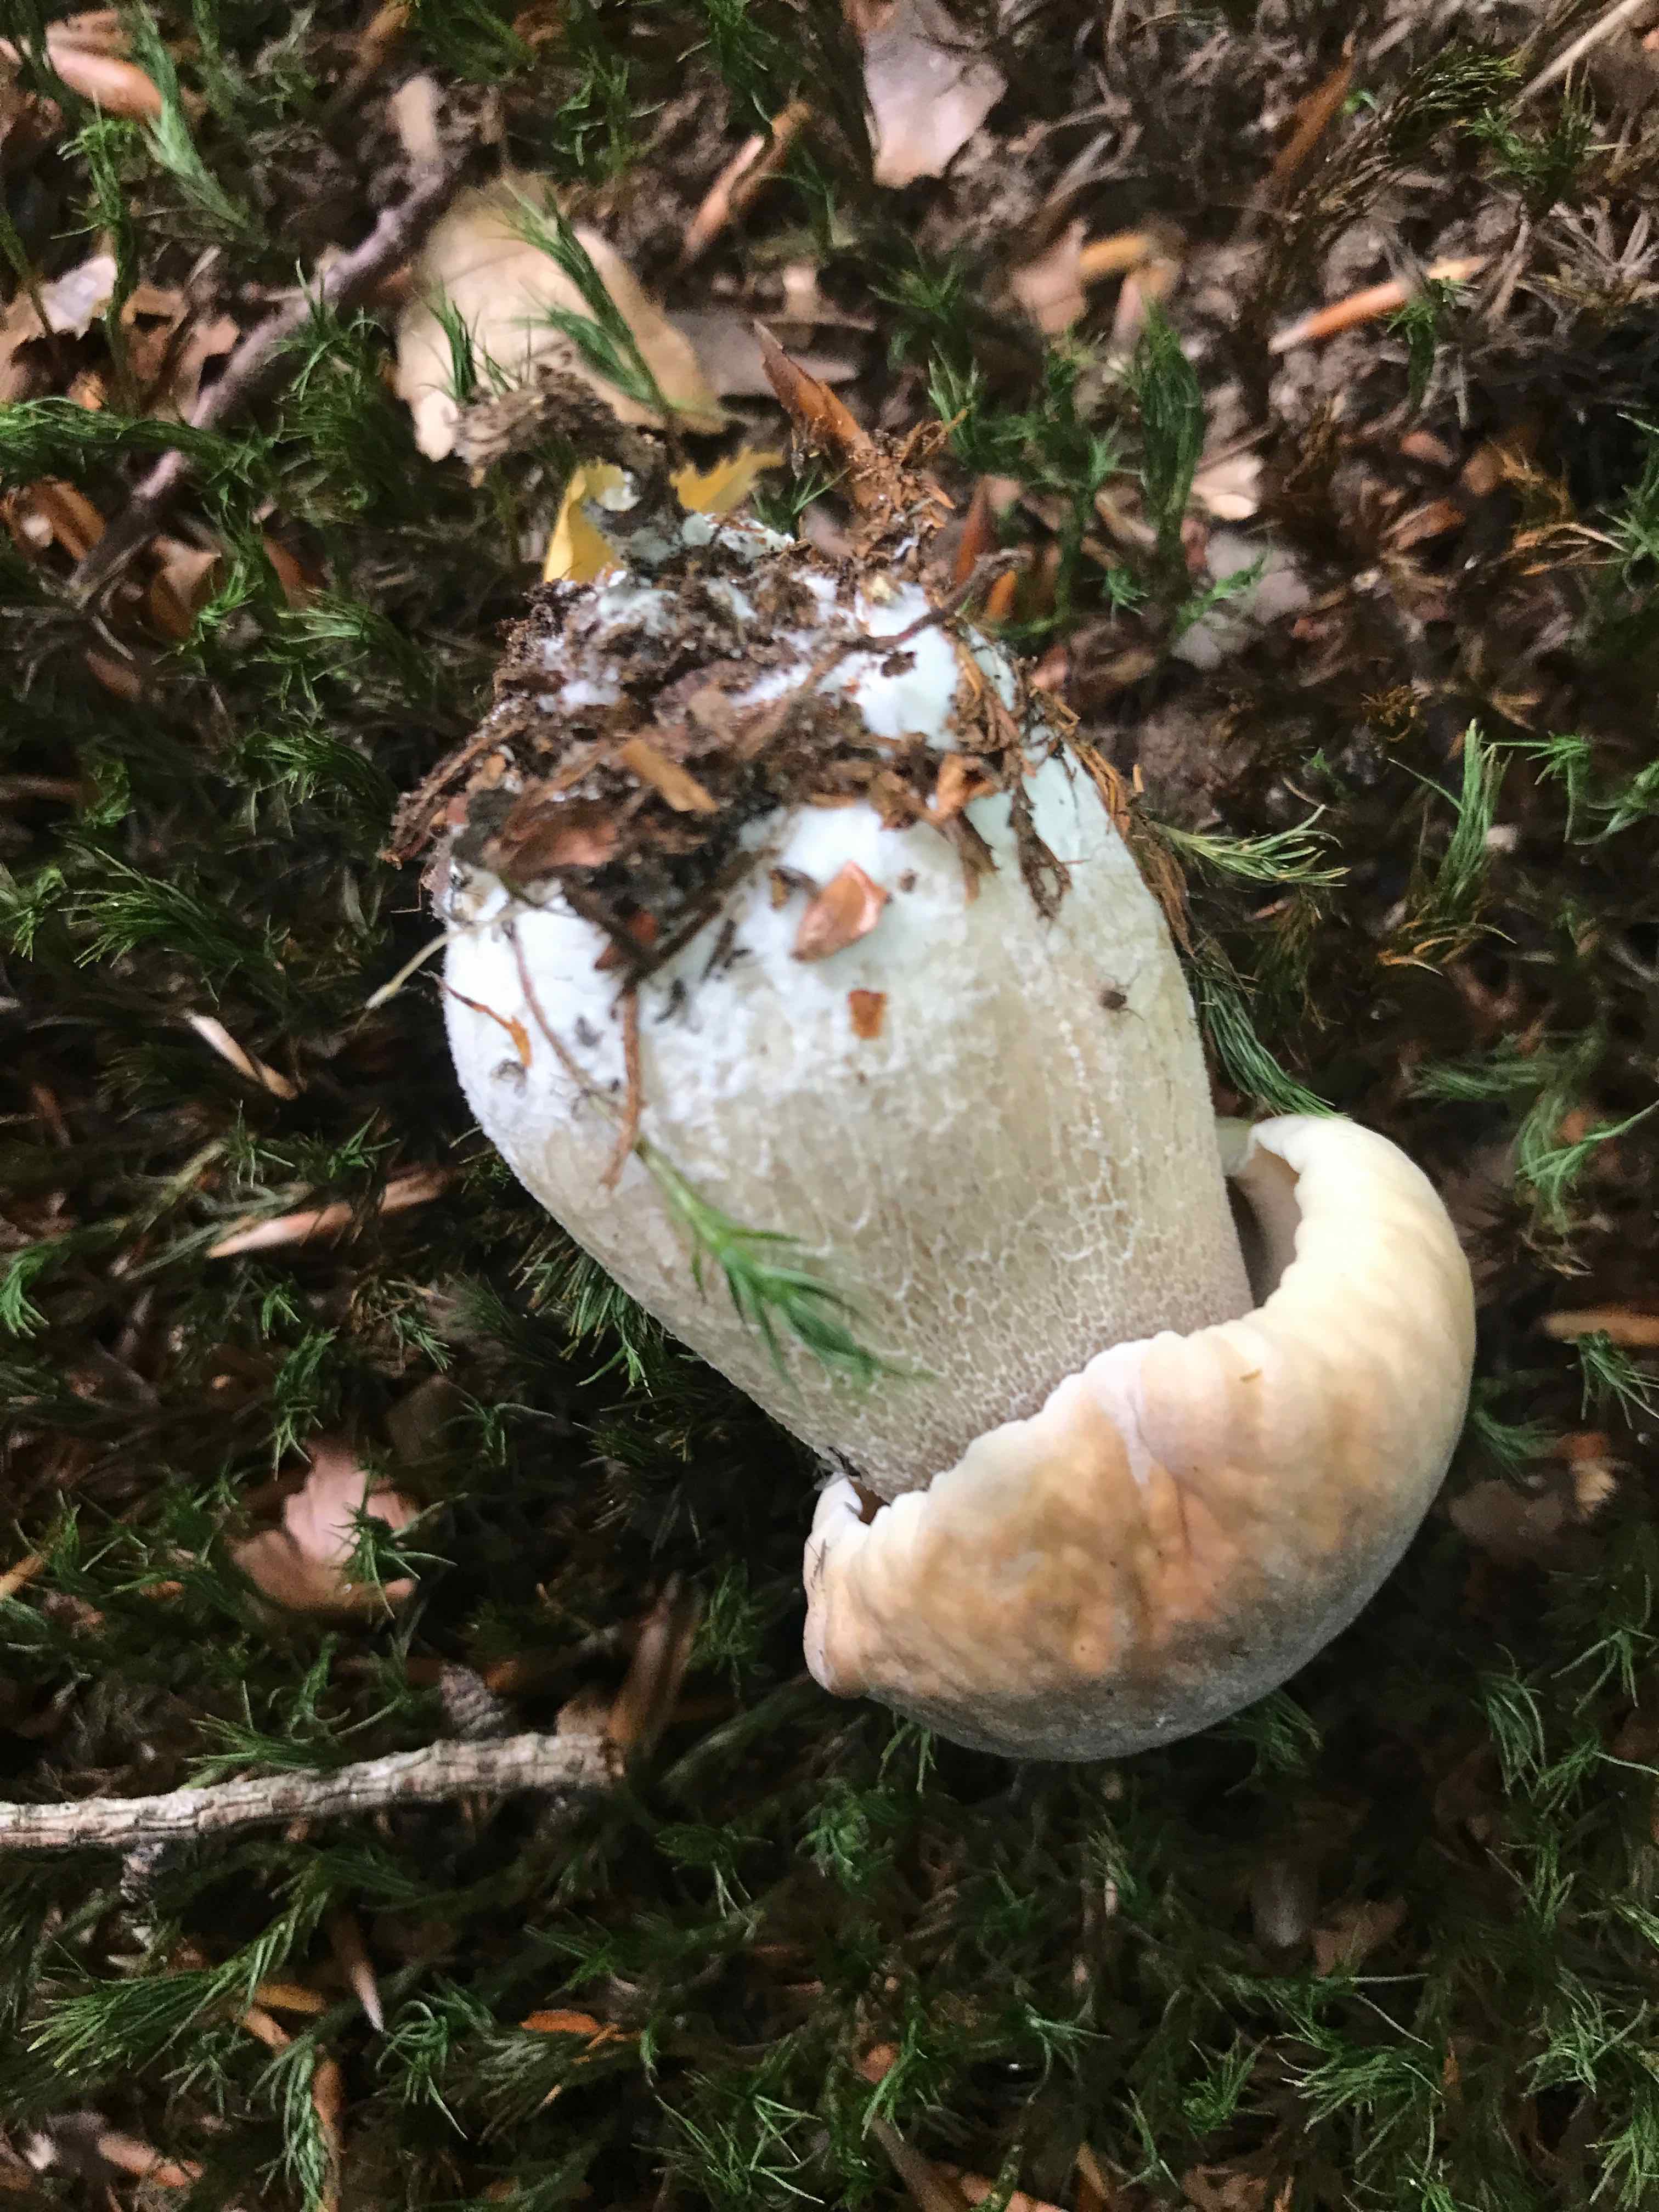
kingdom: Fungi
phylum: Basidiomycota
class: Agaricomycetes
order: Boletales
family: Boletaceae
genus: Boletus
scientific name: Boletus edulis
